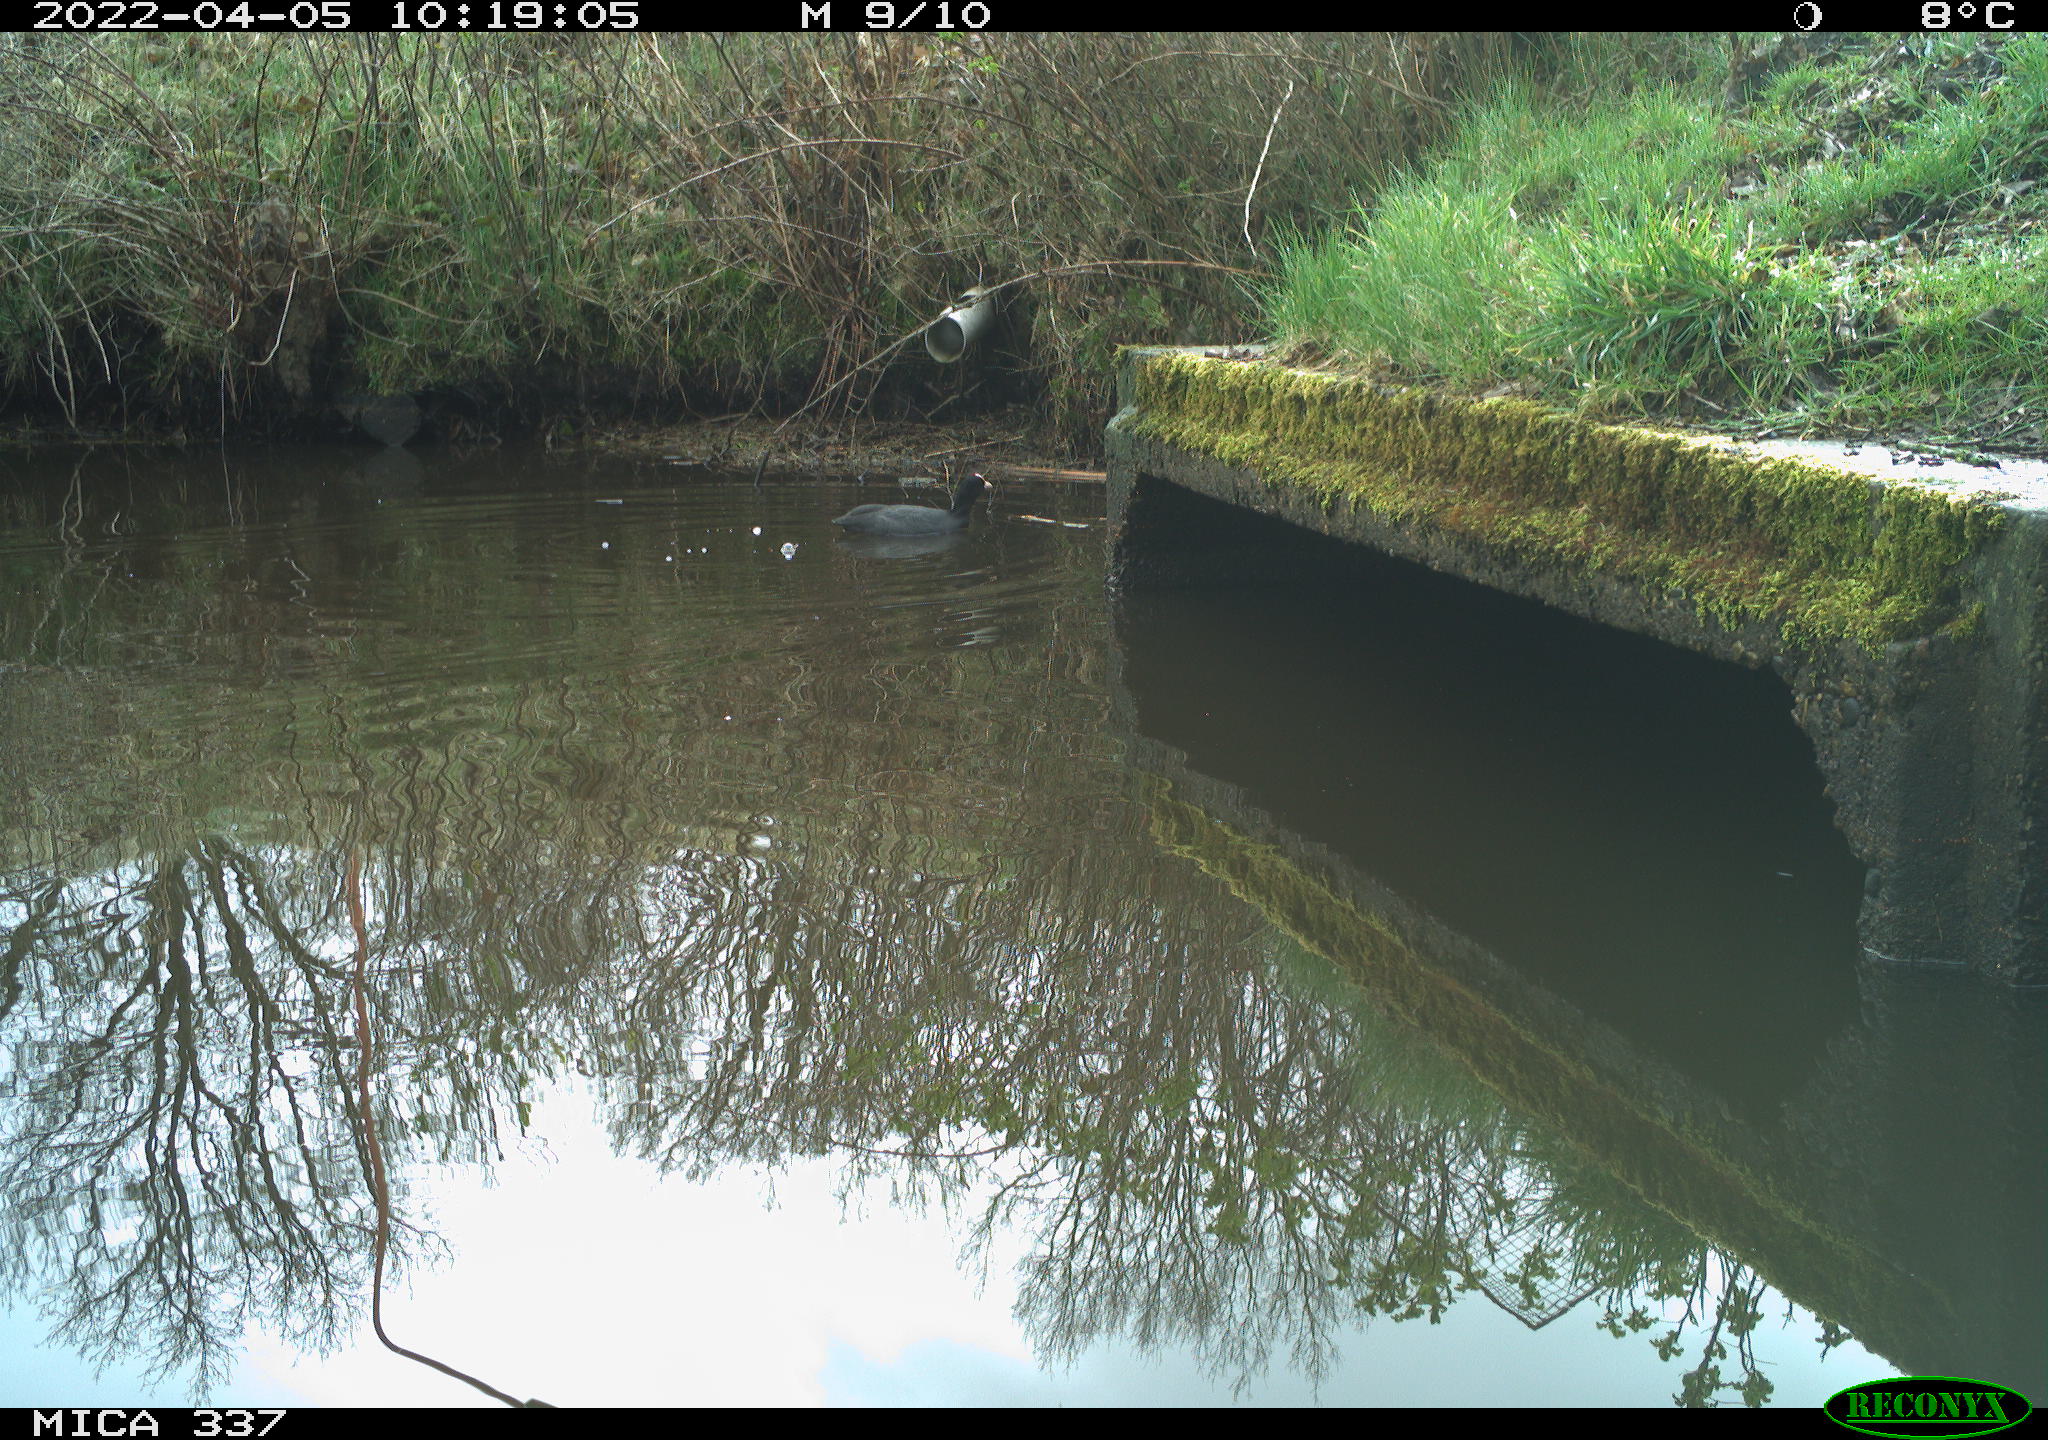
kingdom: Animalia
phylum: Chordata
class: Aves
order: Gruiformes
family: Rallidae
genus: Fulica
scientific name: Fulica atra
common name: Eurasian coot
